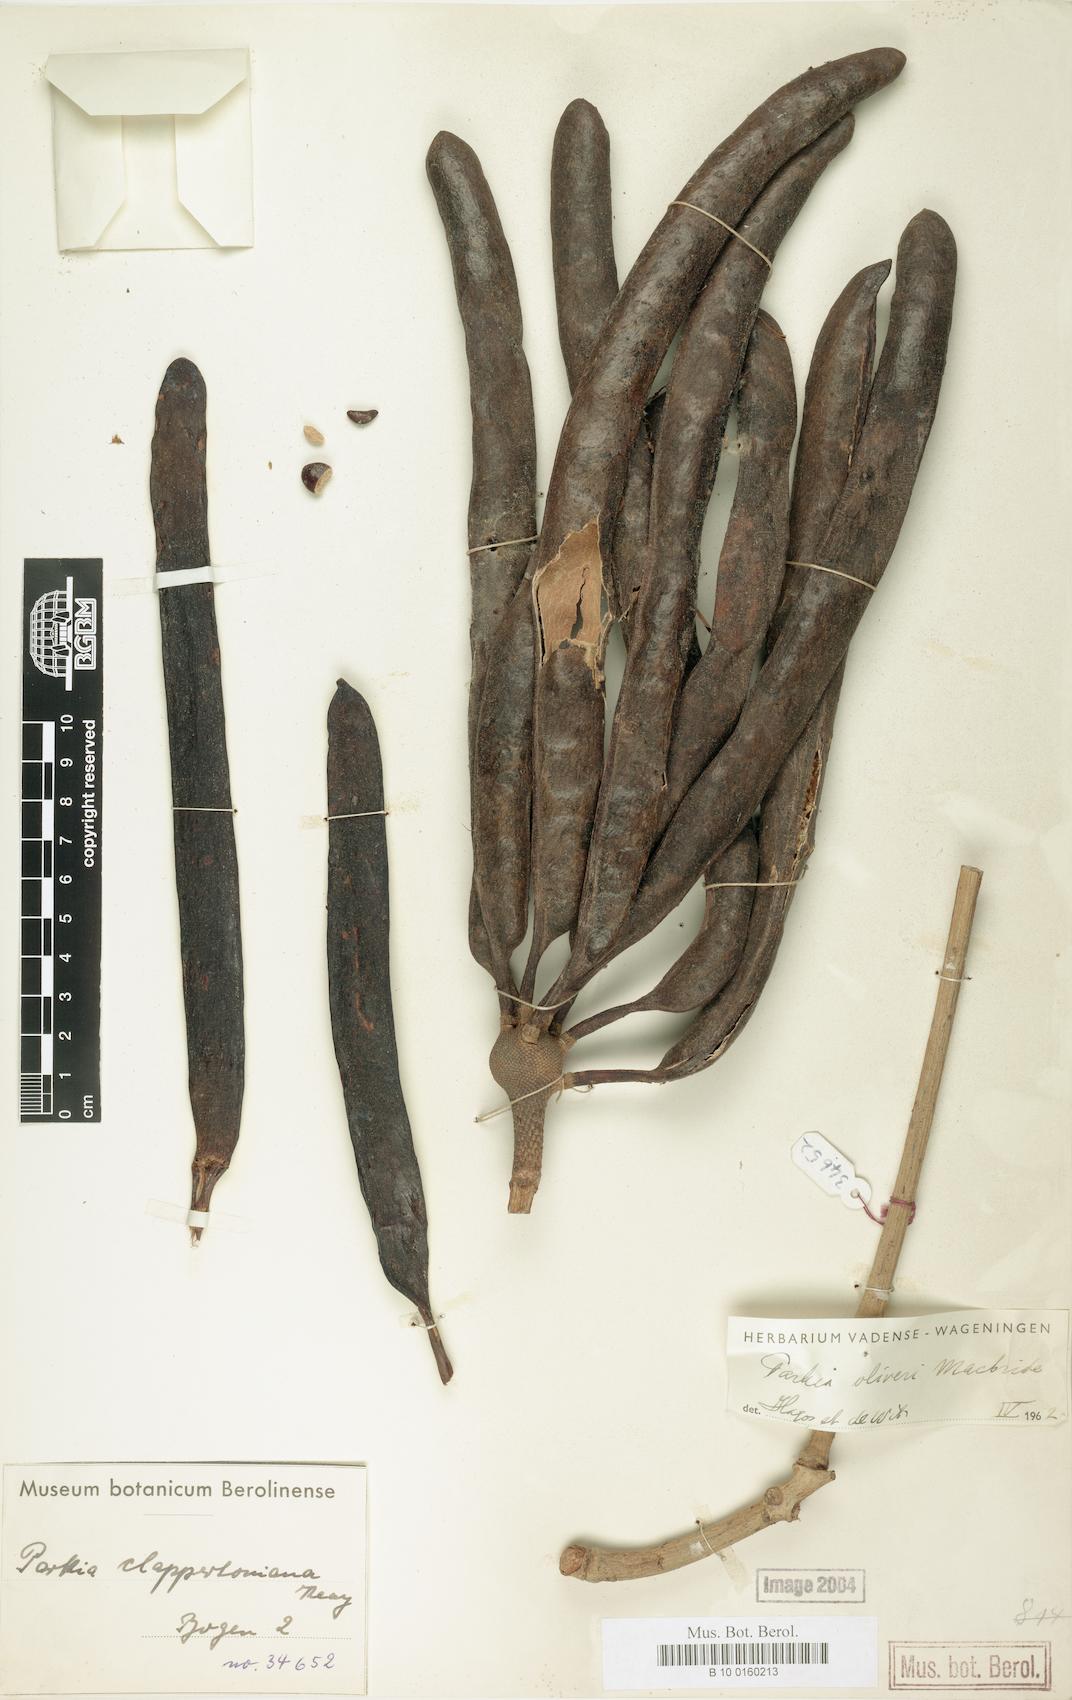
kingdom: Plantae
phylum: Tracheophyta
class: Magnoliopsida
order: Fabales
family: Fabaceae
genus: Parkia
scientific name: Parkia biglobosa
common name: African locust-bean
